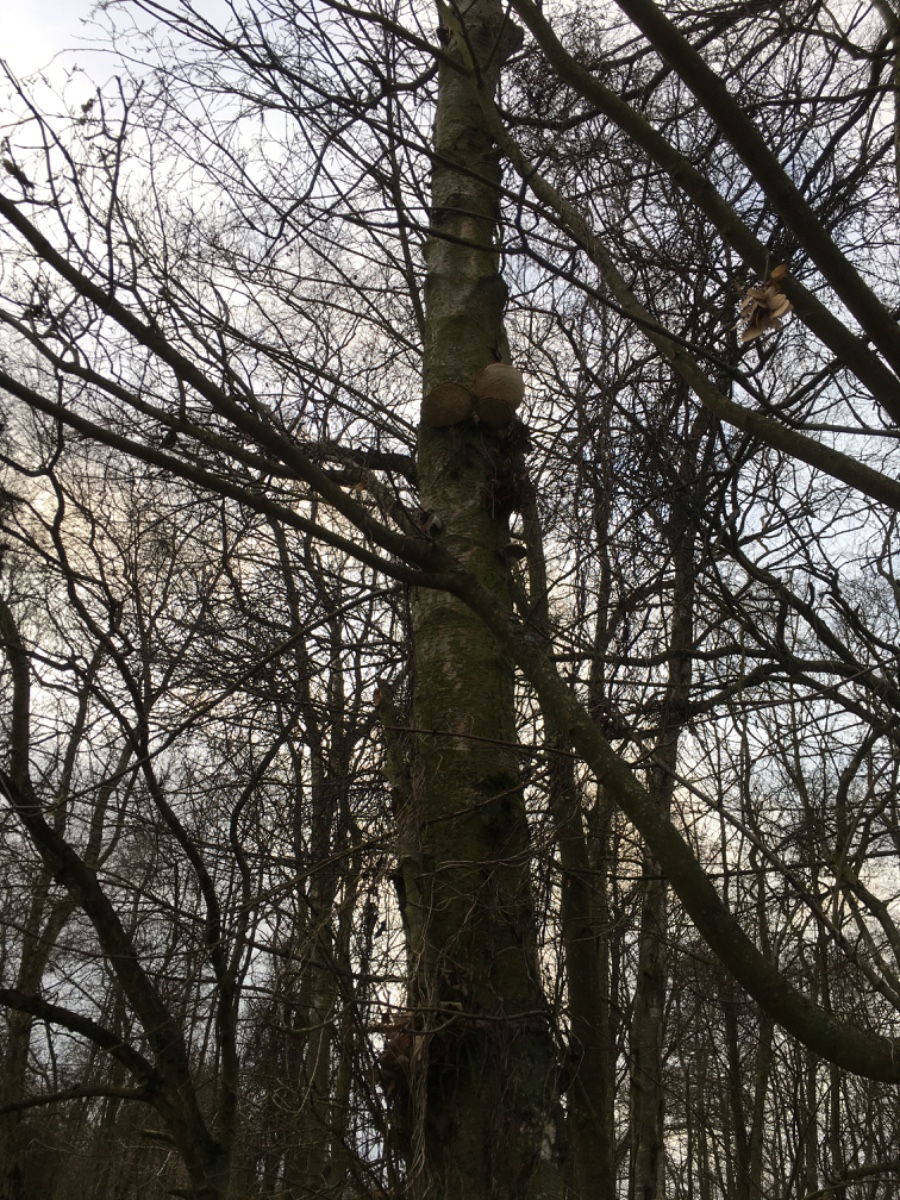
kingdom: Fungi
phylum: Basidiomycota
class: Agaricomycetes
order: Polyporales
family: Fomitopsidaceae
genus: Fomitopsis
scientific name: Fomitopsis betulina
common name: birkeporesvamp
